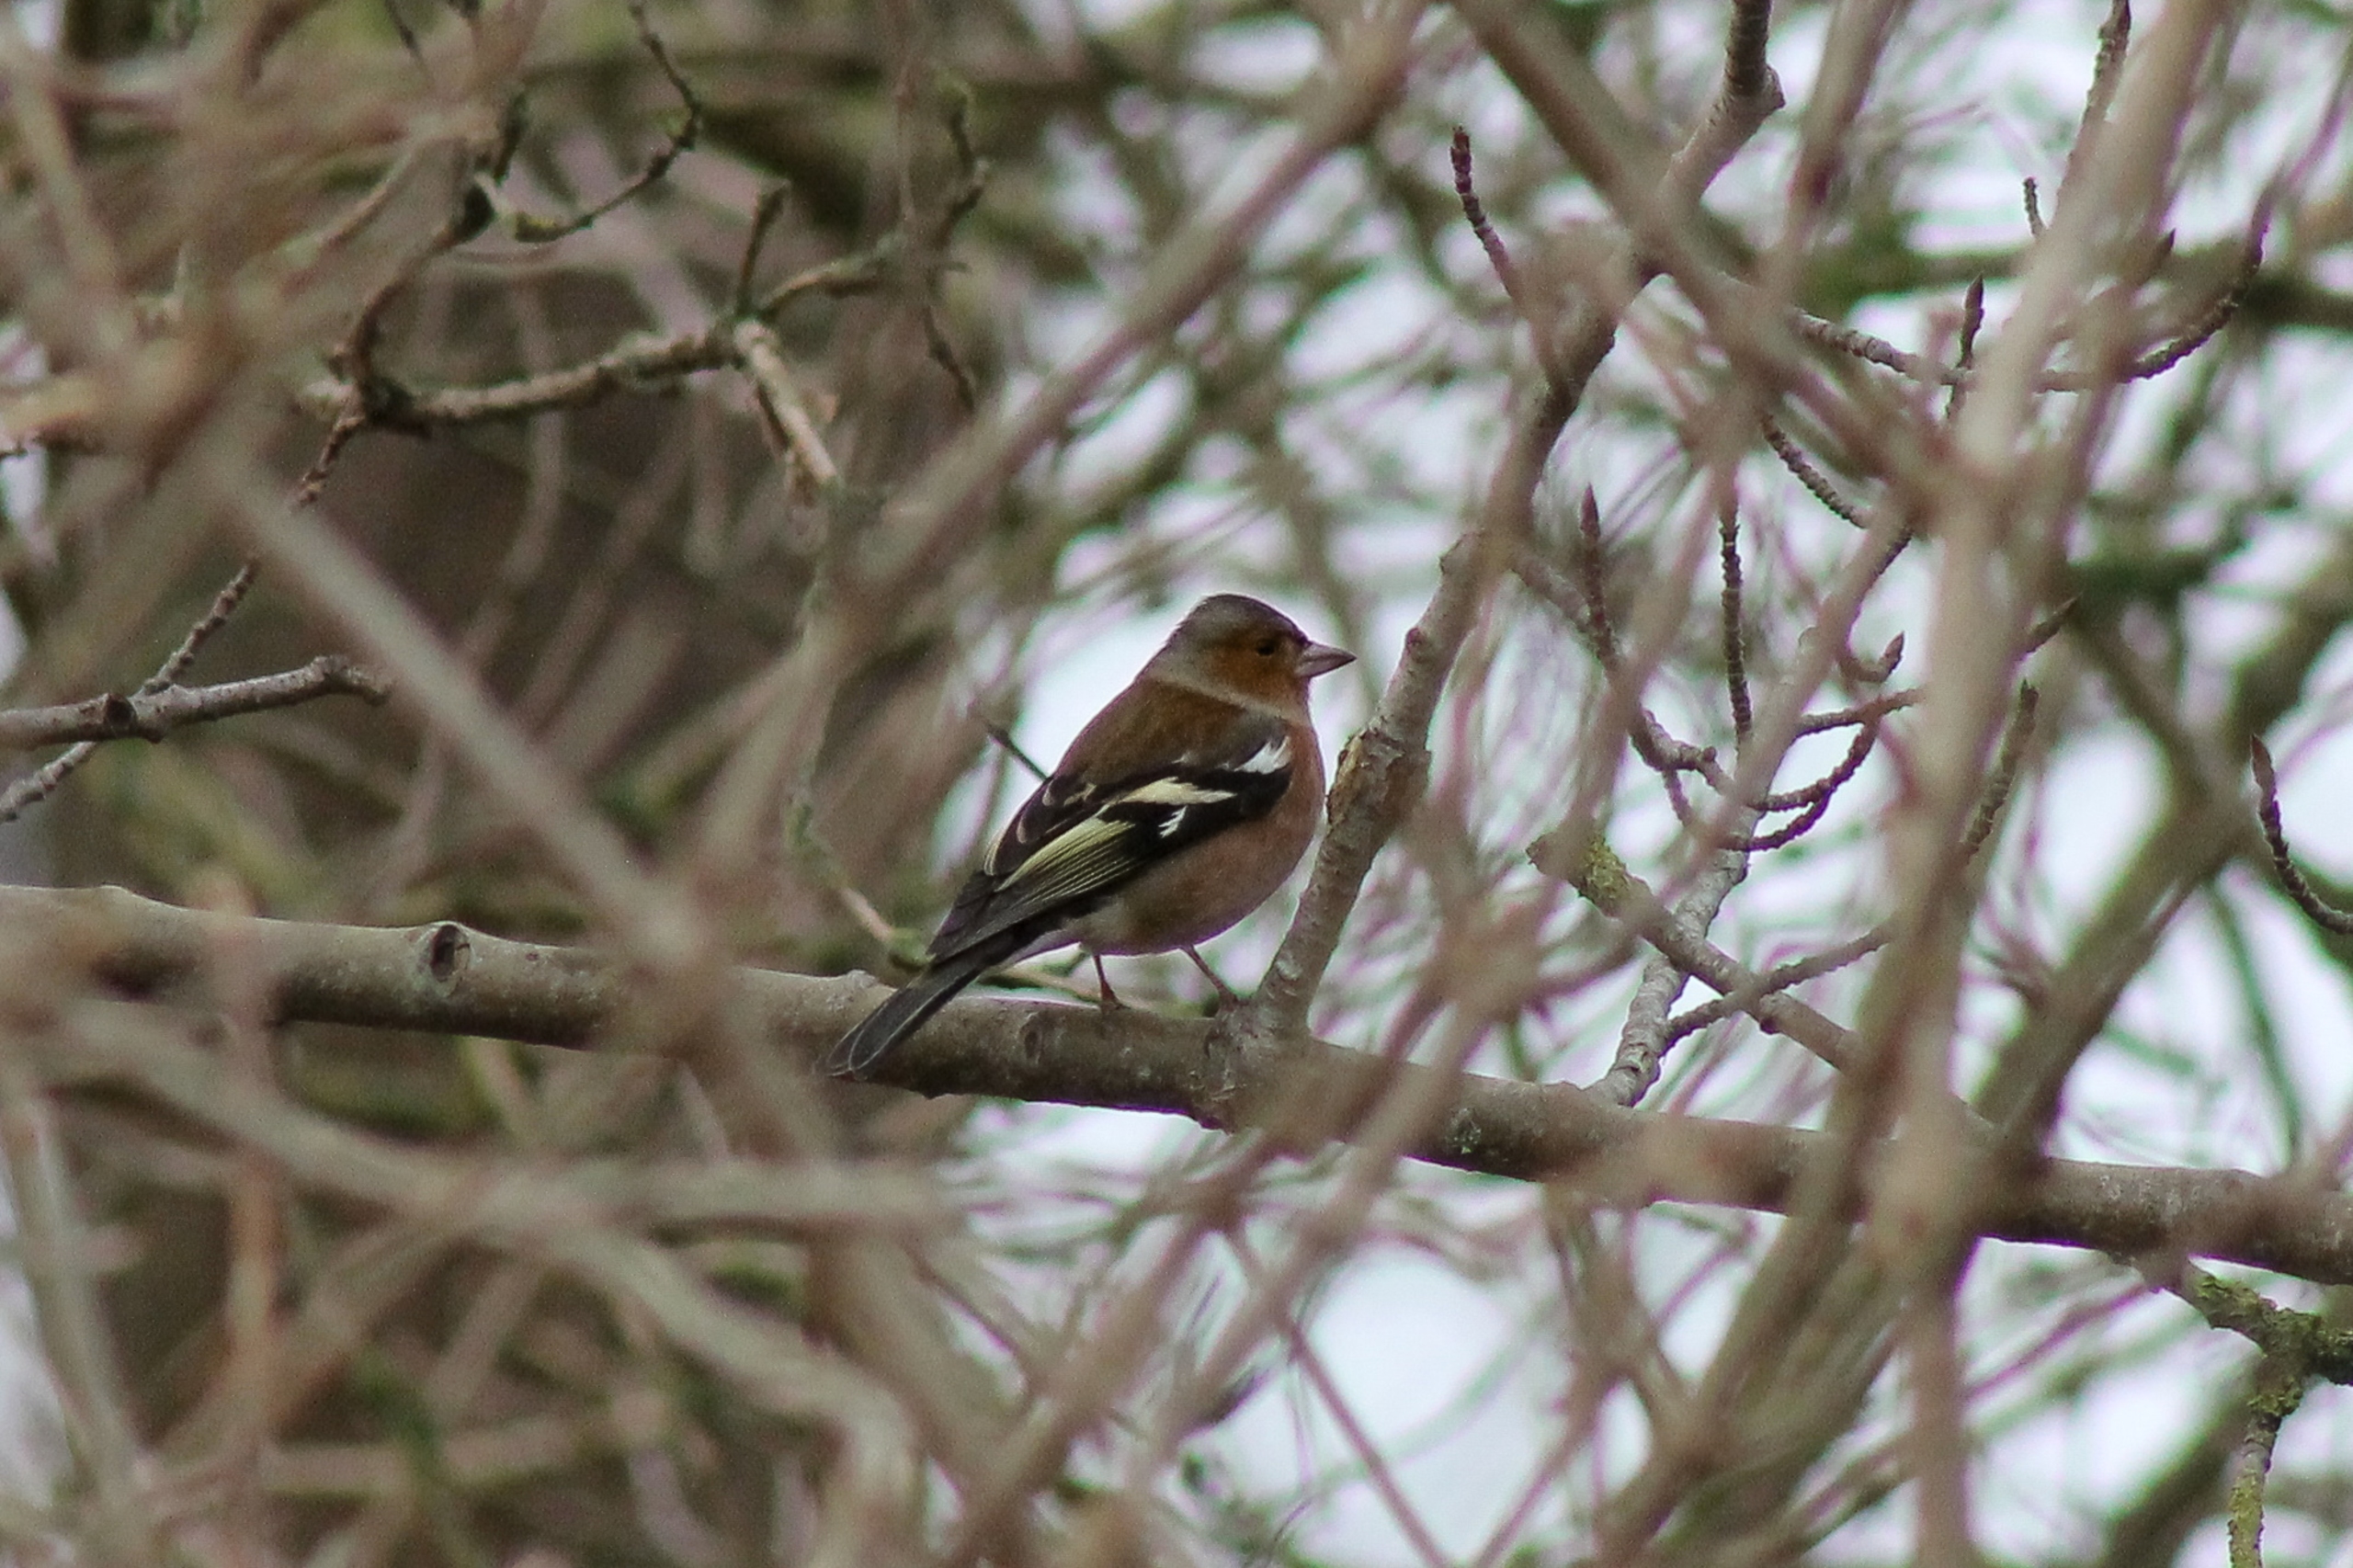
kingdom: Animalia
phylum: Chordata
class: Aves
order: Passeriformes
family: Fringillidae
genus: Fringilla
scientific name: Fringilla coelebs
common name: Bogfinke
